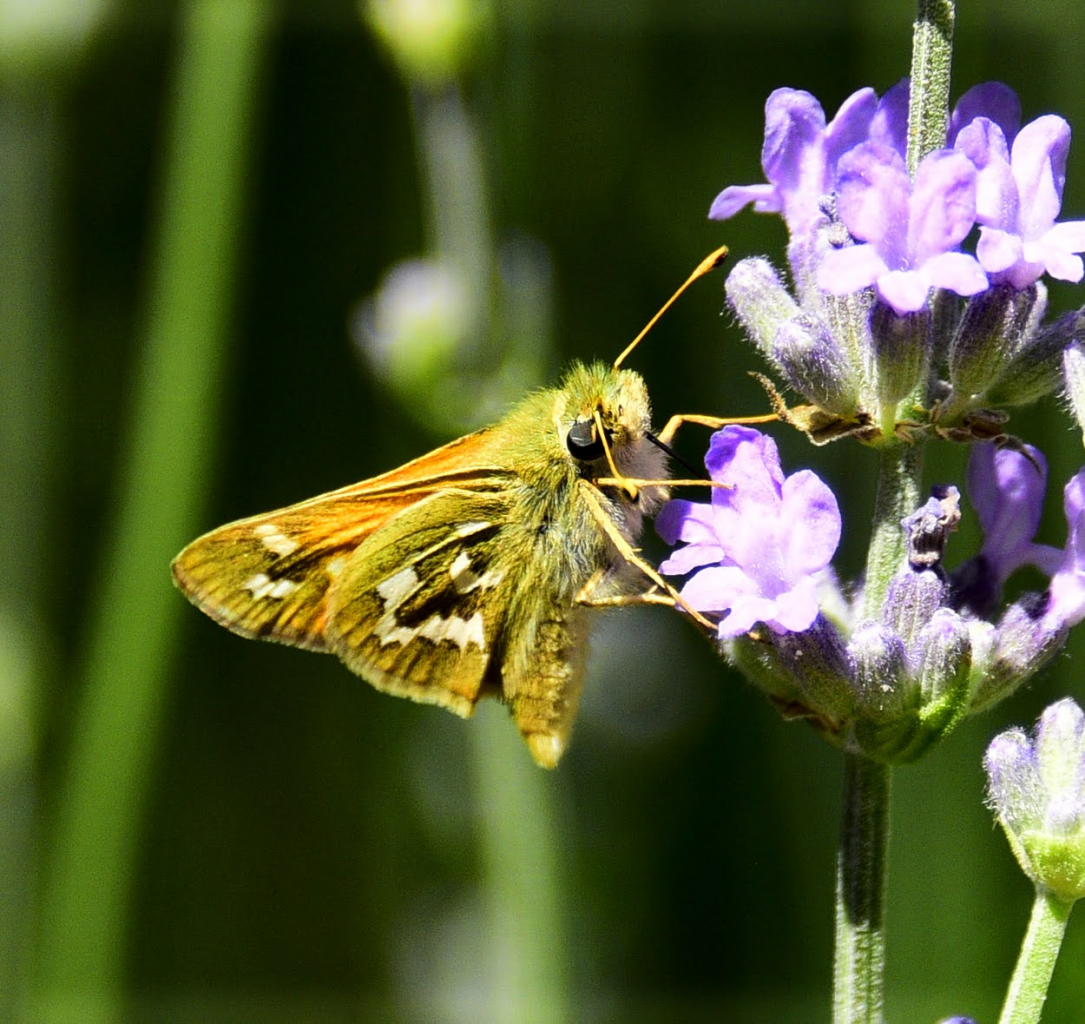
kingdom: Animalia
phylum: Arthropoda
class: Insecta
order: Lepidoptera
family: Hesperiidae
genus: Hesperia
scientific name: Hesperia juba
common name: Juba Skipper
